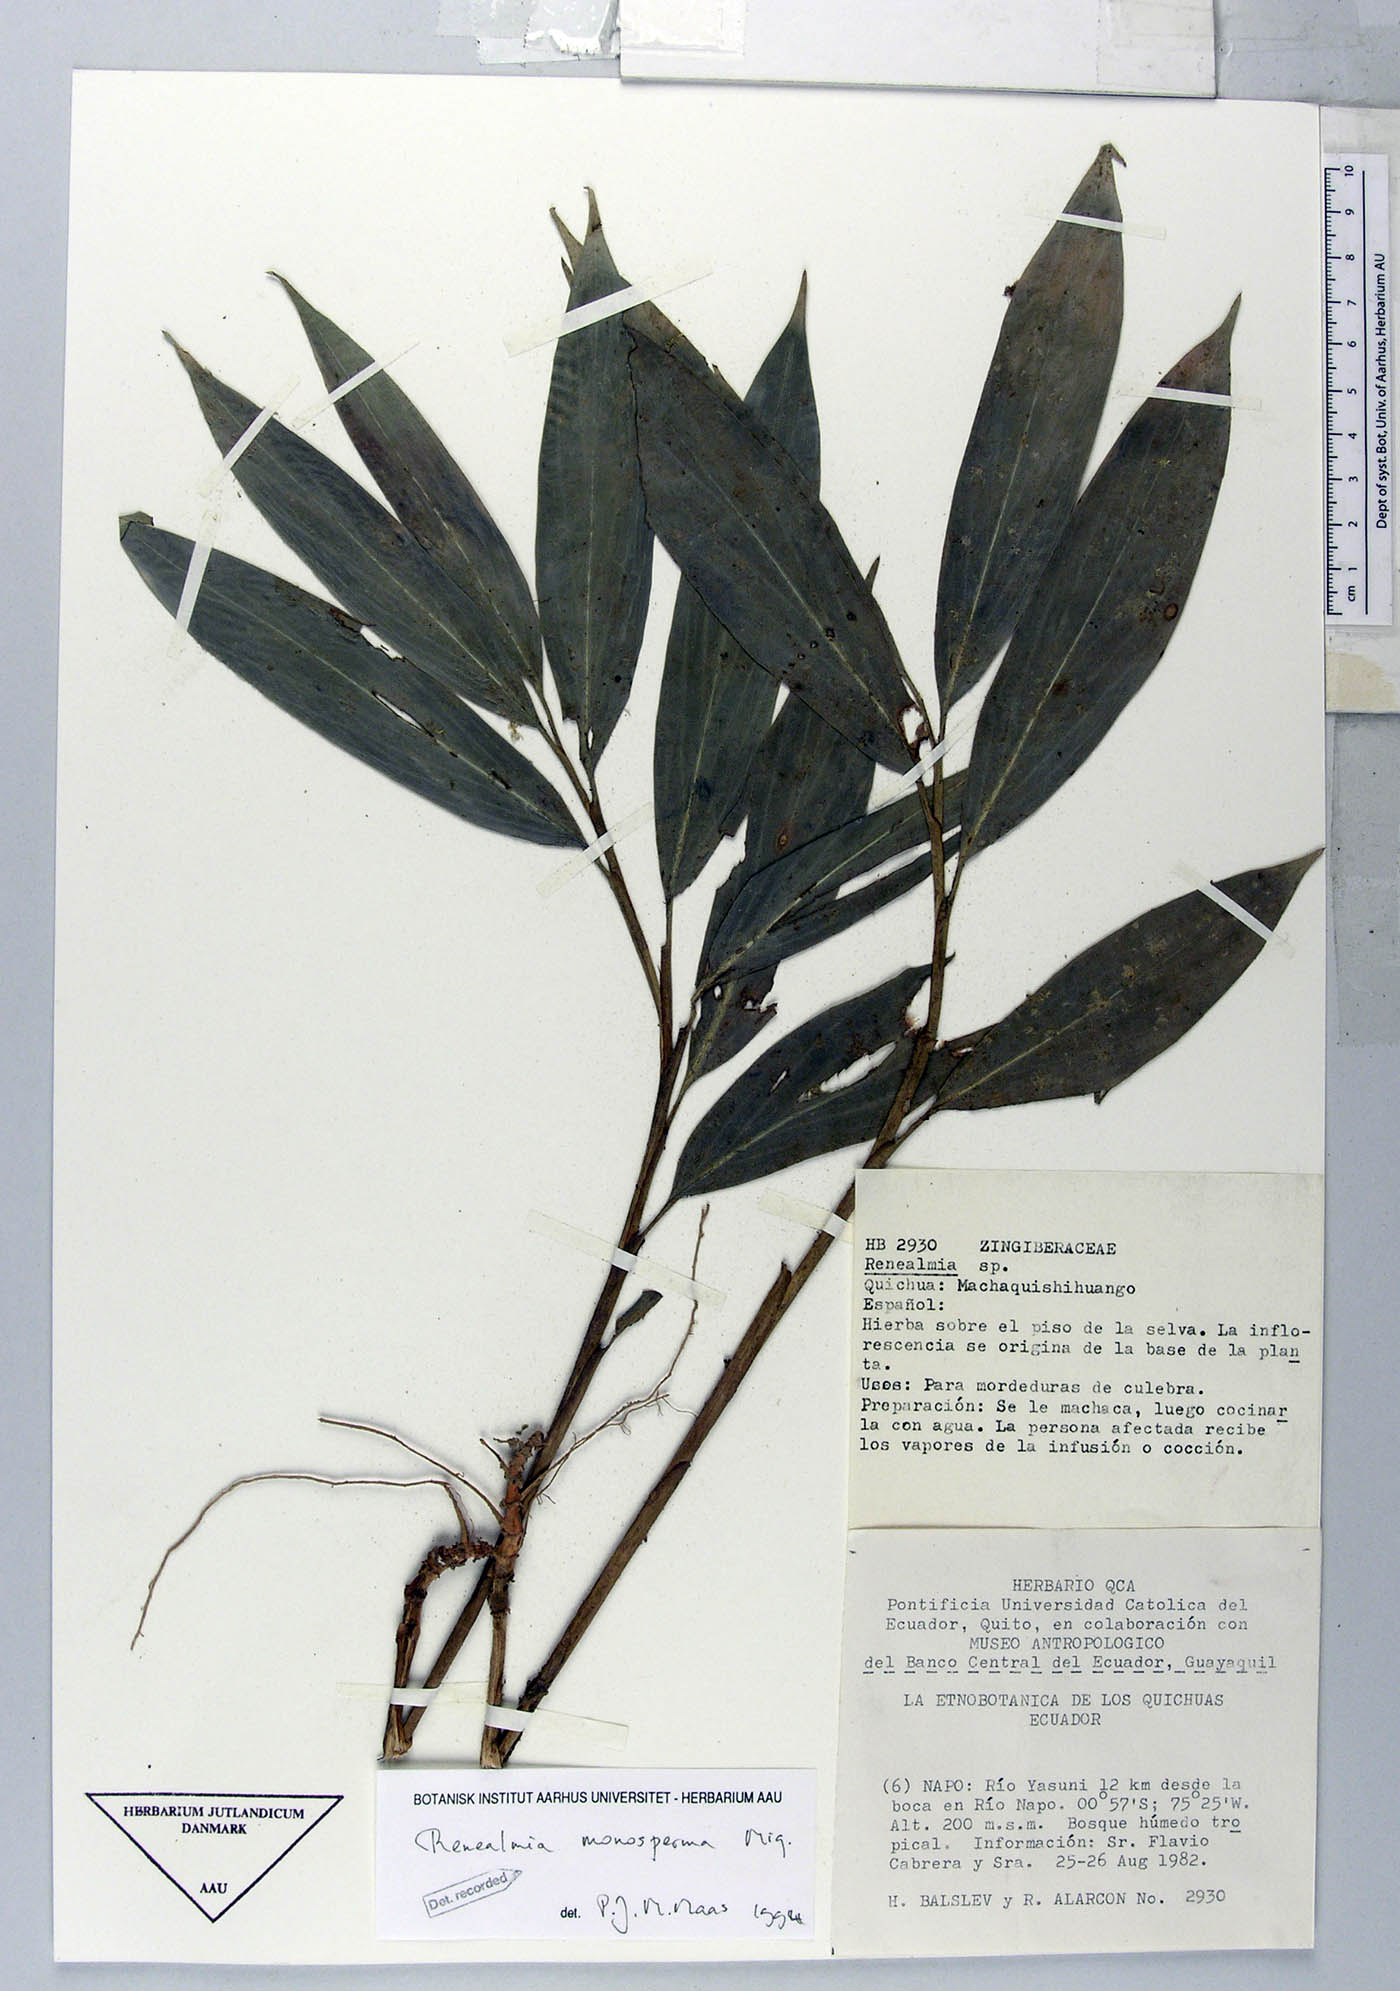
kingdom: Plantae
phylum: Tracheophyta
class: Liliopsida
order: Zingiberales
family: Zingiberaceae
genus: Renealmia
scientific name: Renealmia monosperma
